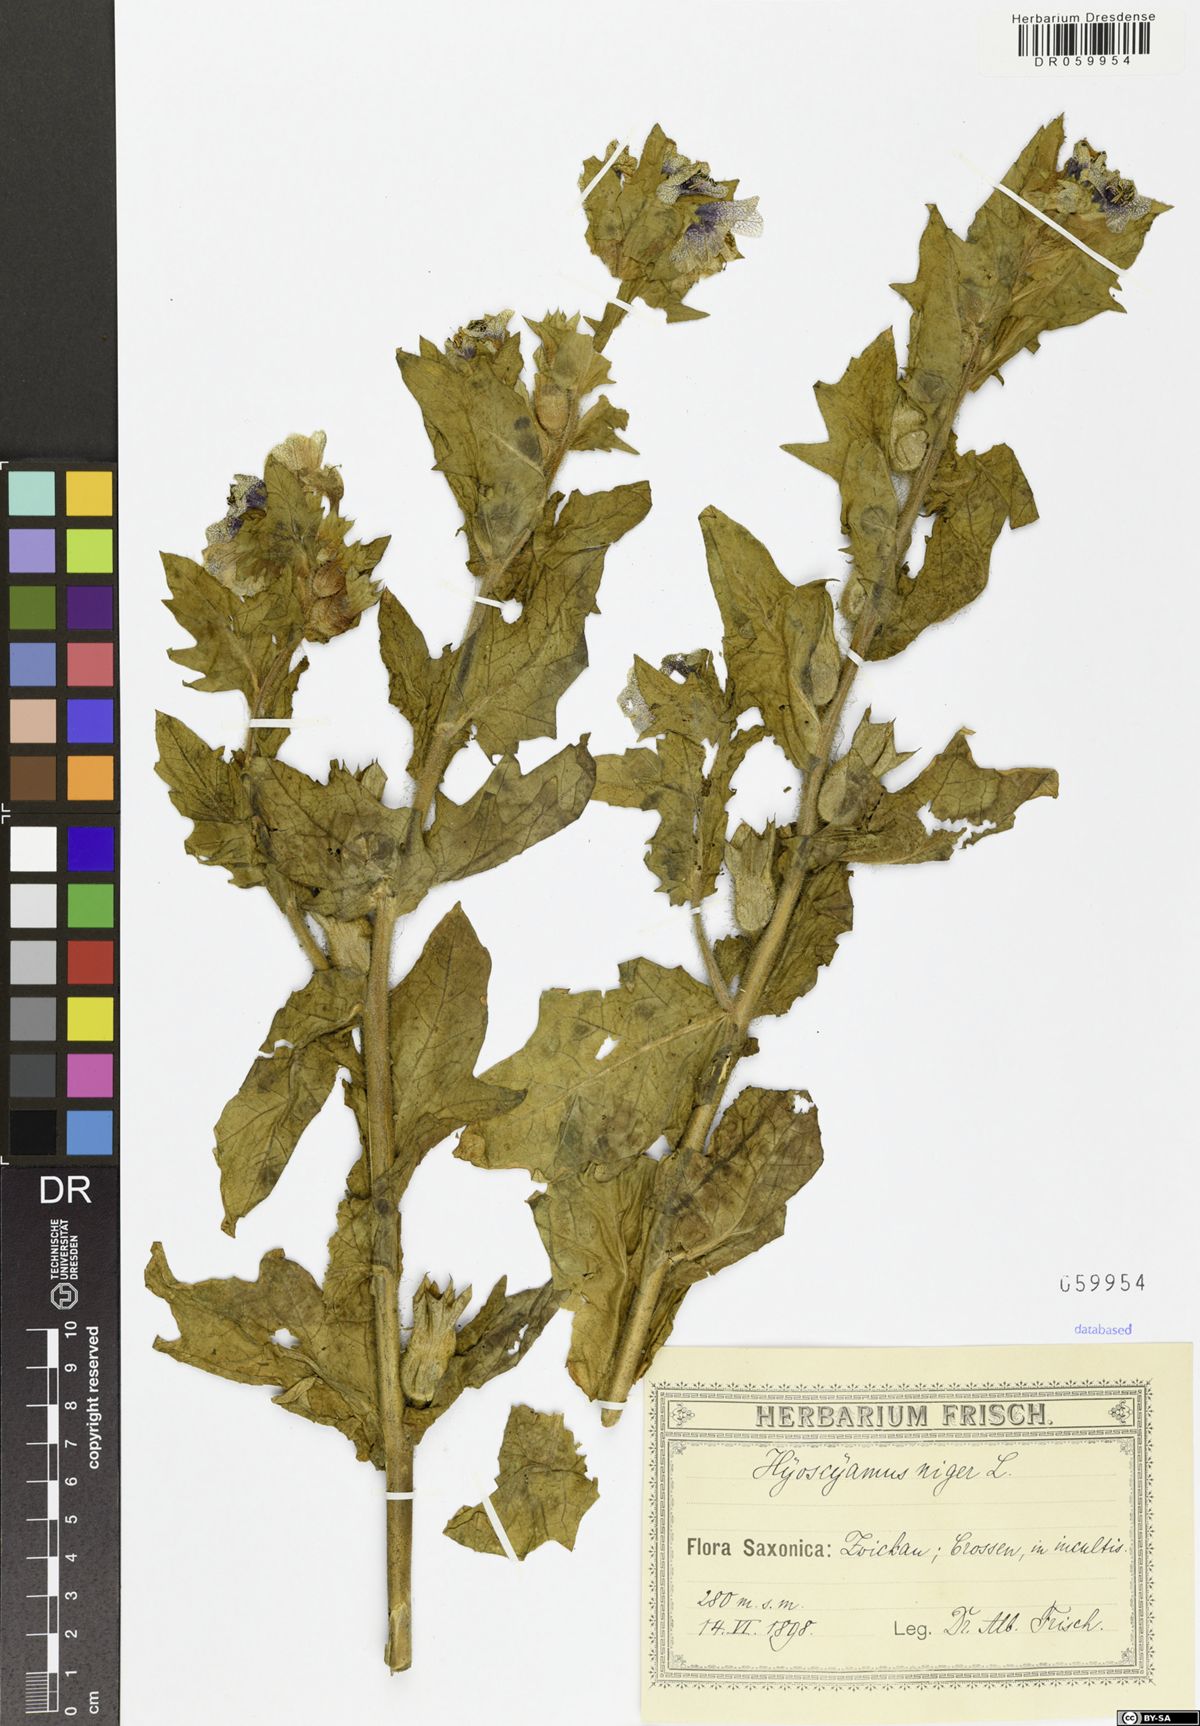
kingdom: Plantae
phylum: Tracheophyta
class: Magnoliopsida
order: Solanales
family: Solanaceae
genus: Hyoscyamus
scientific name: Hyoscyamus niger
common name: Henbane
